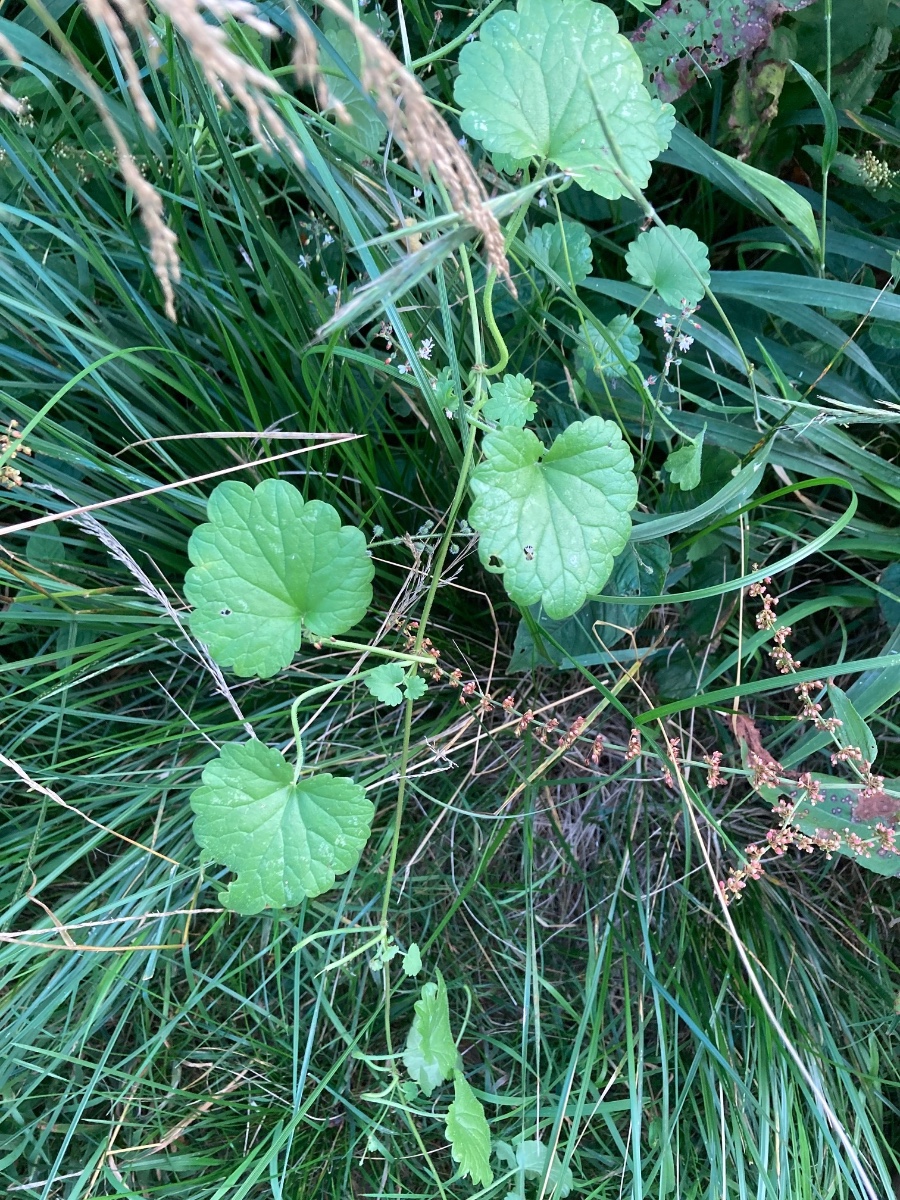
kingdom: Fungi
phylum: Basidiomycota
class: Pucciniomycetes
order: Pucciniales
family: Pucciniaceae
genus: Puccinia
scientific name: Puccinia glechomatis
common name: Ground ivy rust
